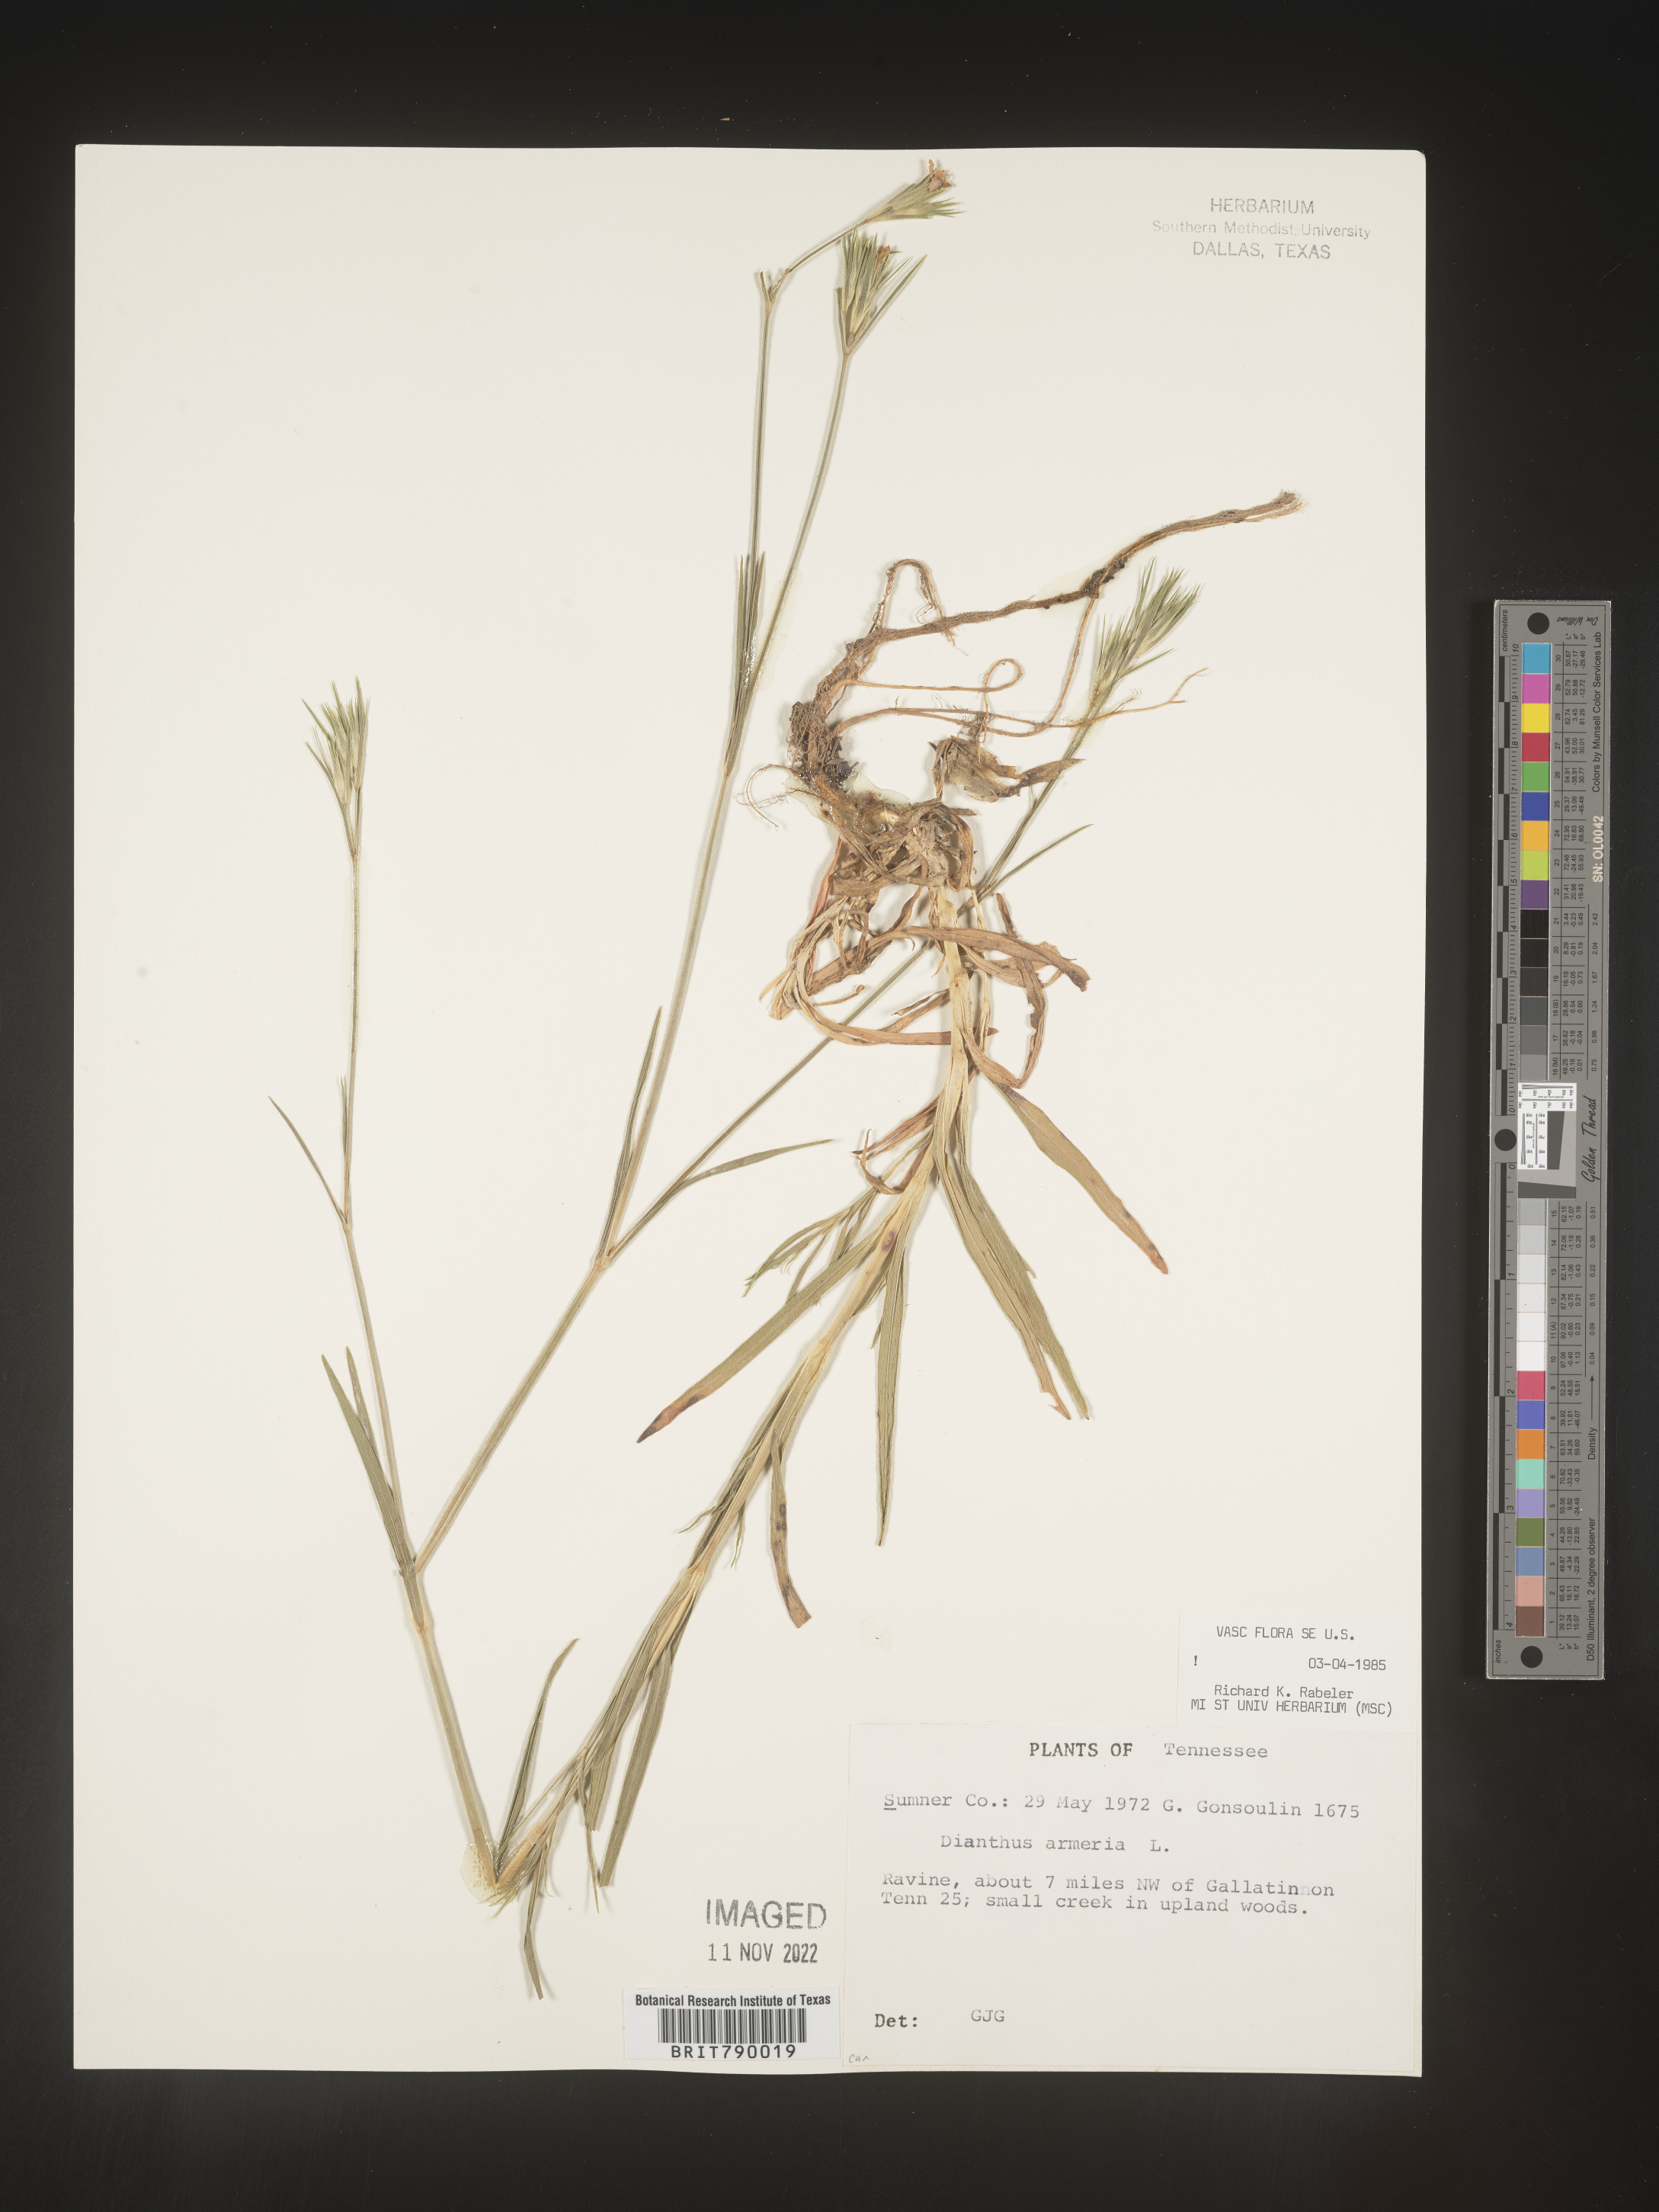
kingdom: Plantae
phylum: Tracheophyta
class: Magnoliopsida
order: Caryophyllales
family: Caryophyllaceae
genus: Dianthus
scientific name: Dianthus armeria
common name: Deptford pink
